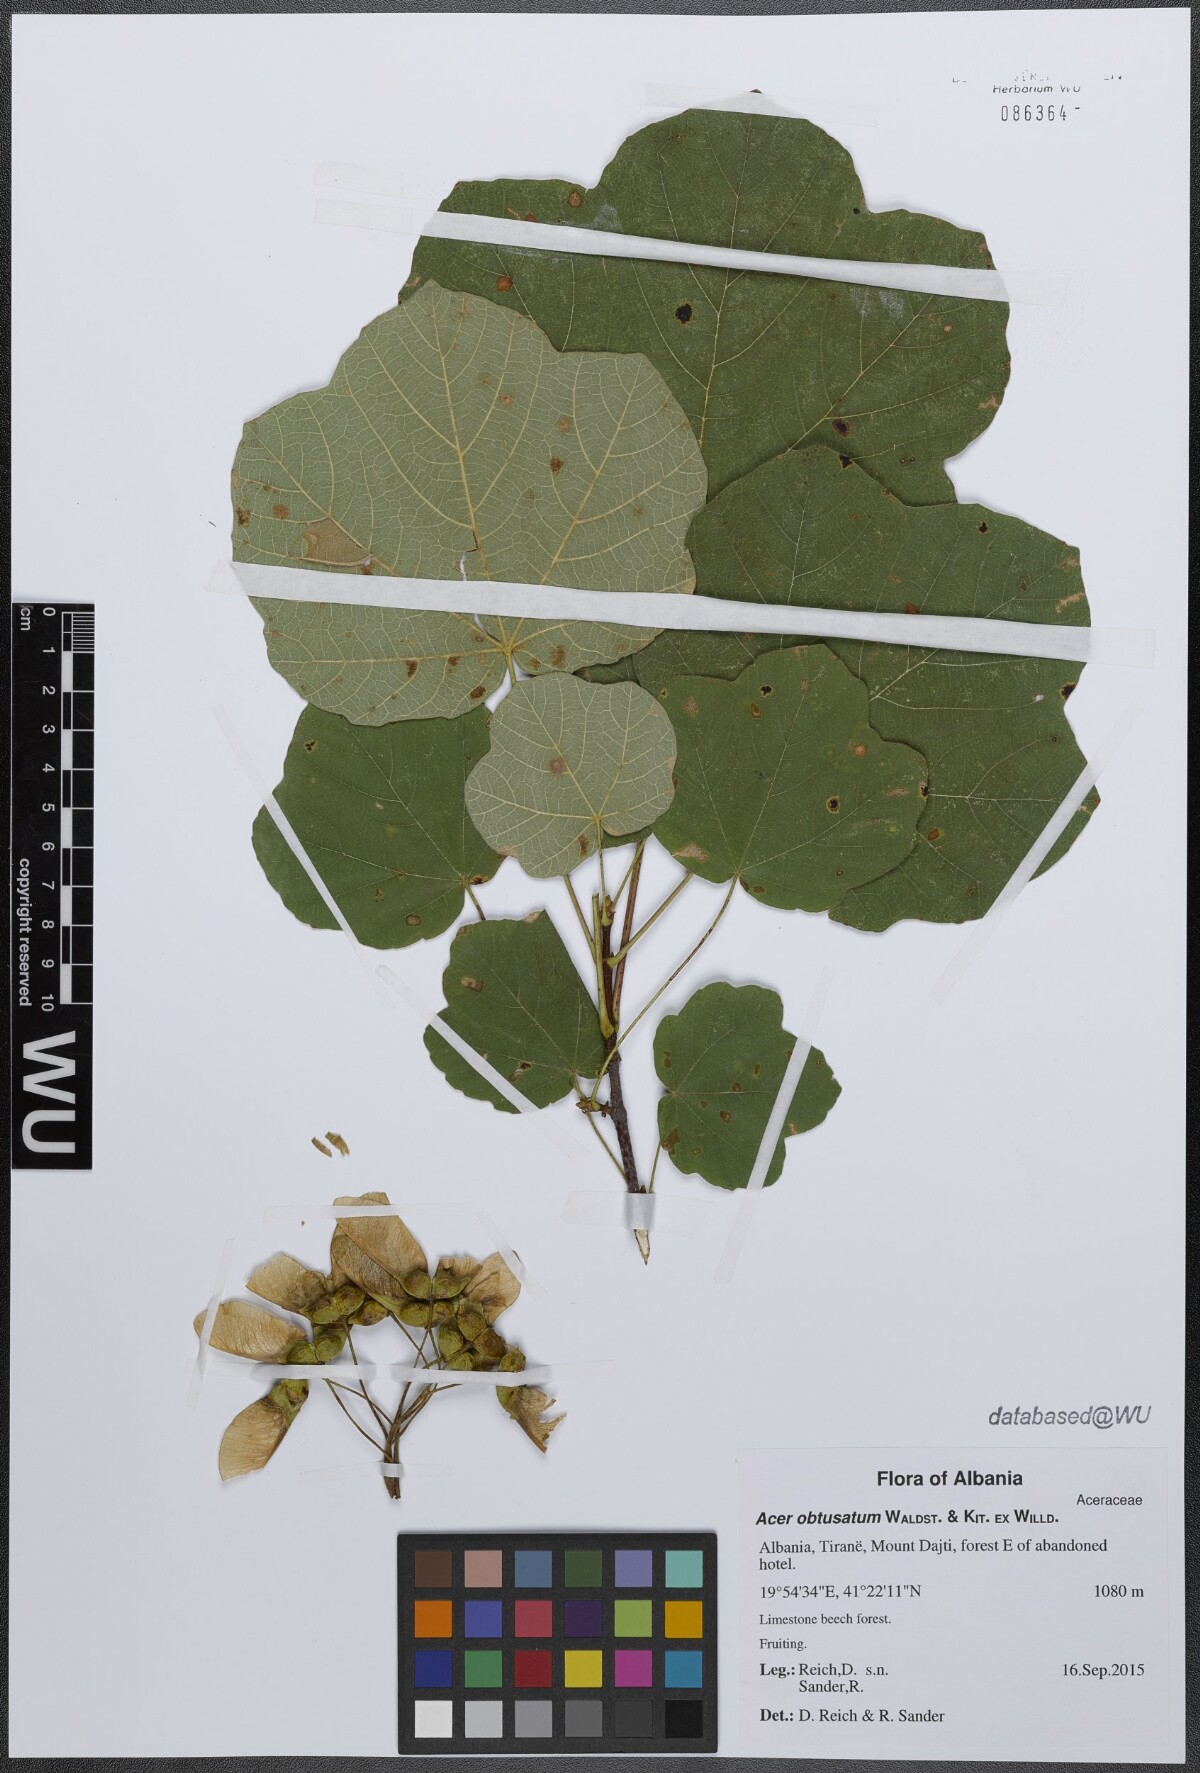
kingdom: Plantae
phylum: Tracheophyta
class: Magnoliopsida
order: Sapindales
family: Sapindaceae
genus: Acer
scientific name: Acer obtusatum
